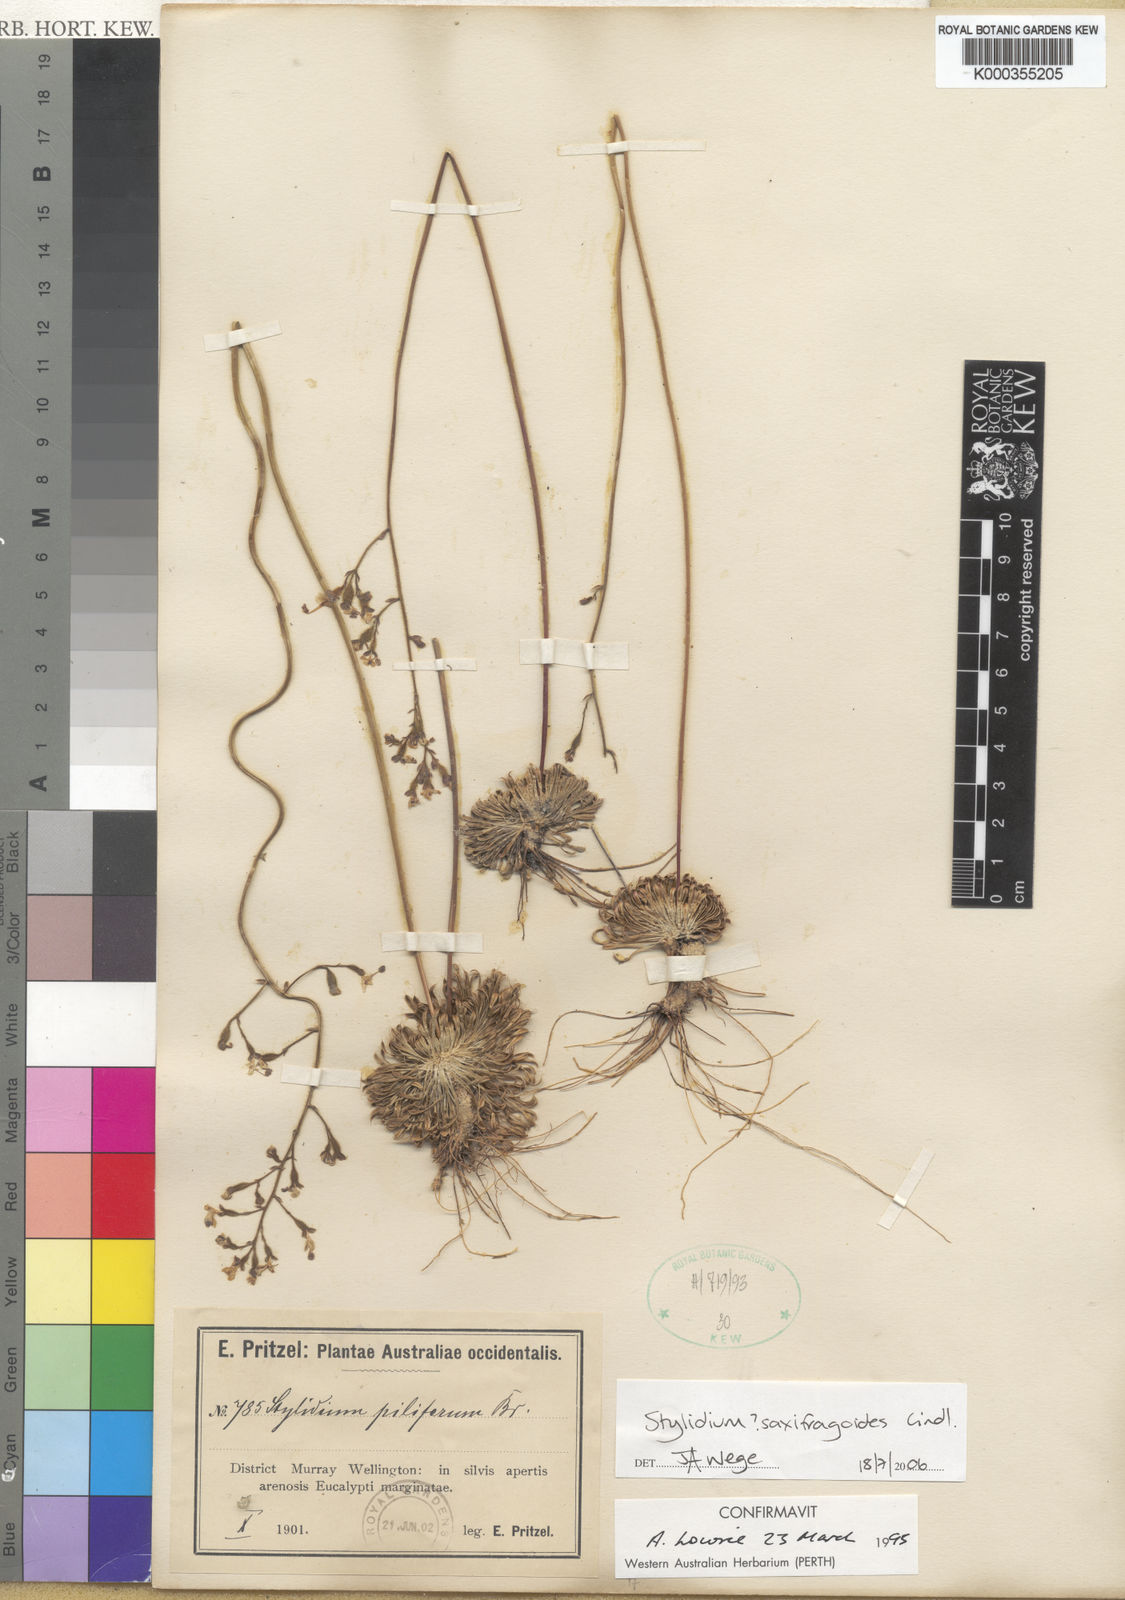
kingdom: Plantae
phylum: Tracheophyta
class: Magnoliopsida
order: Asterales
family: Stylidiaceae
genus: Stylidium
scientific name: Stylidium piliferum
